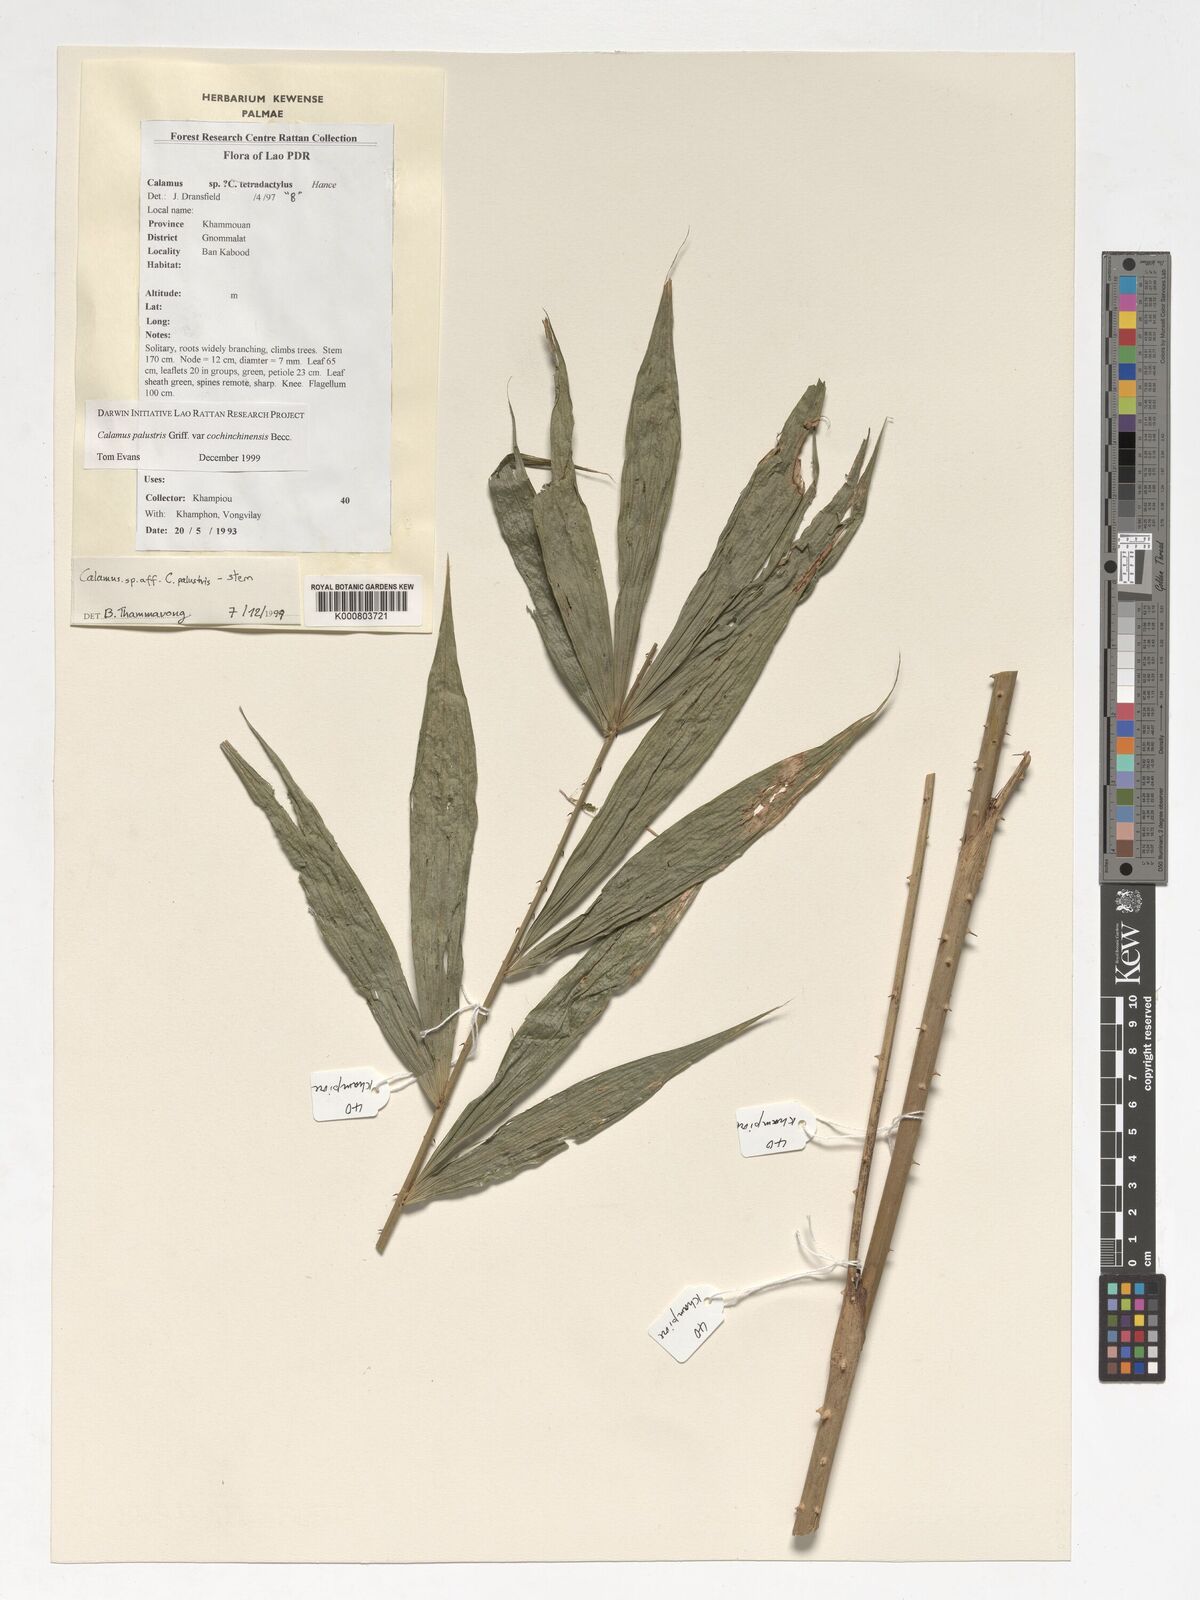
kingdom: Plantae
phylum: Tracheophyta
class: Liliopsida
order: Arecales
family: Arecaceae
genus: Calamus
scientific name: Calamus latifolius
